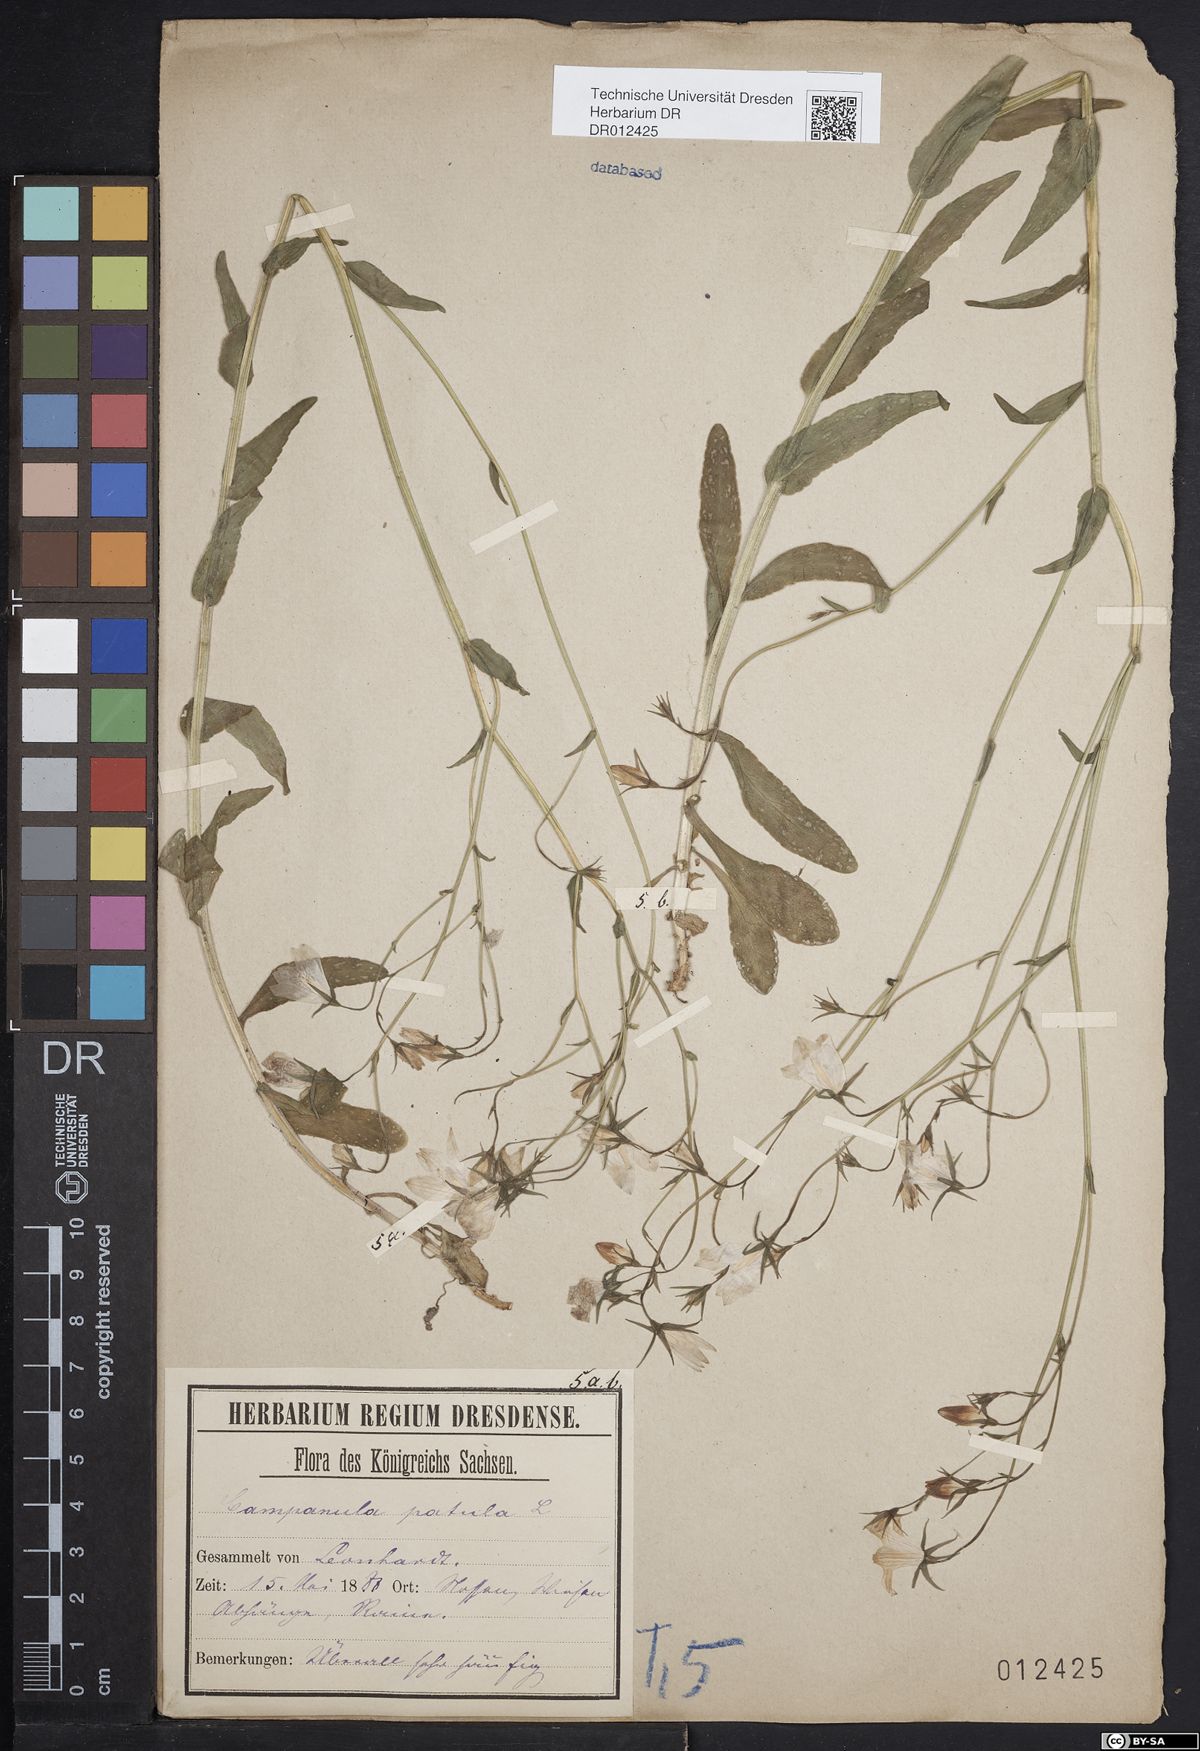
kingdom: Plantae
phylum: Tracheophyta
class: Magnoliopsida
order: Asterales
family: Campanulaceae
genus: Campanula
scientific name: Campanula patula
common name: Spreading bellflower
